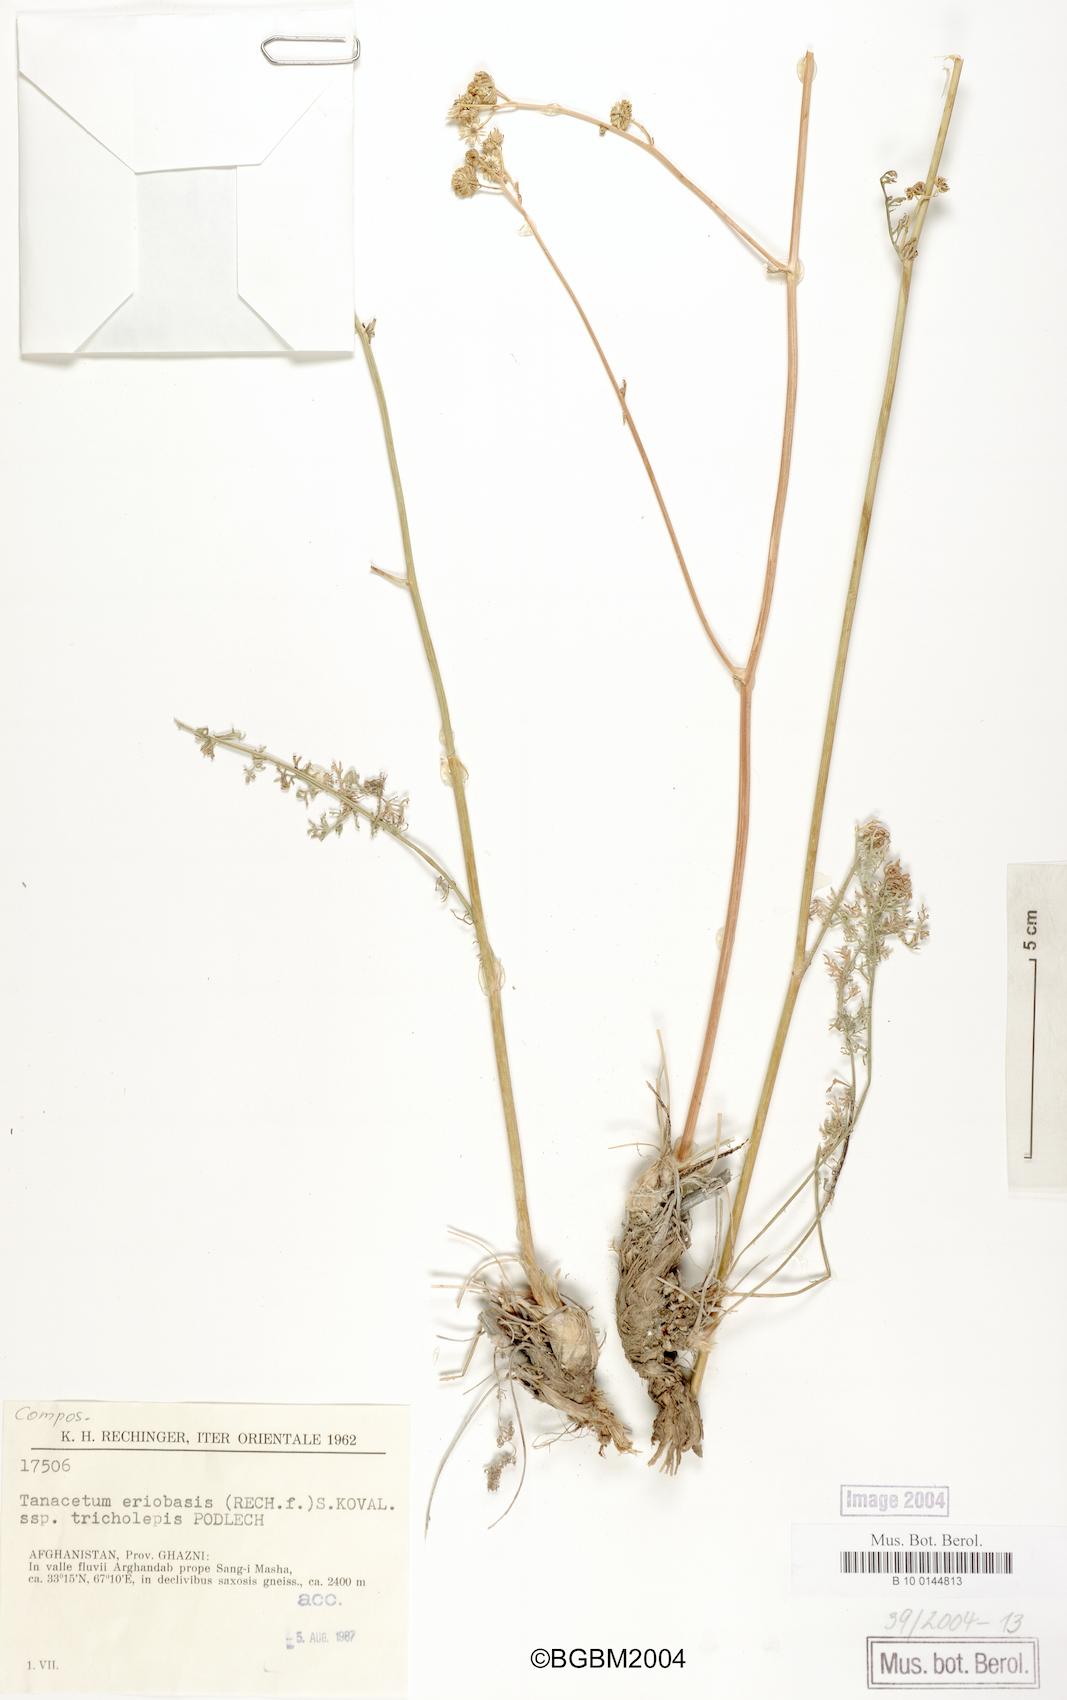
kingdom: Plantae
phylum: Tracheophyta
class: Magnoliopsida
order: Asterales
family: Asteraceae
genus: Tanacetopsis
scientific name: Tanacetopsis eriobasis
